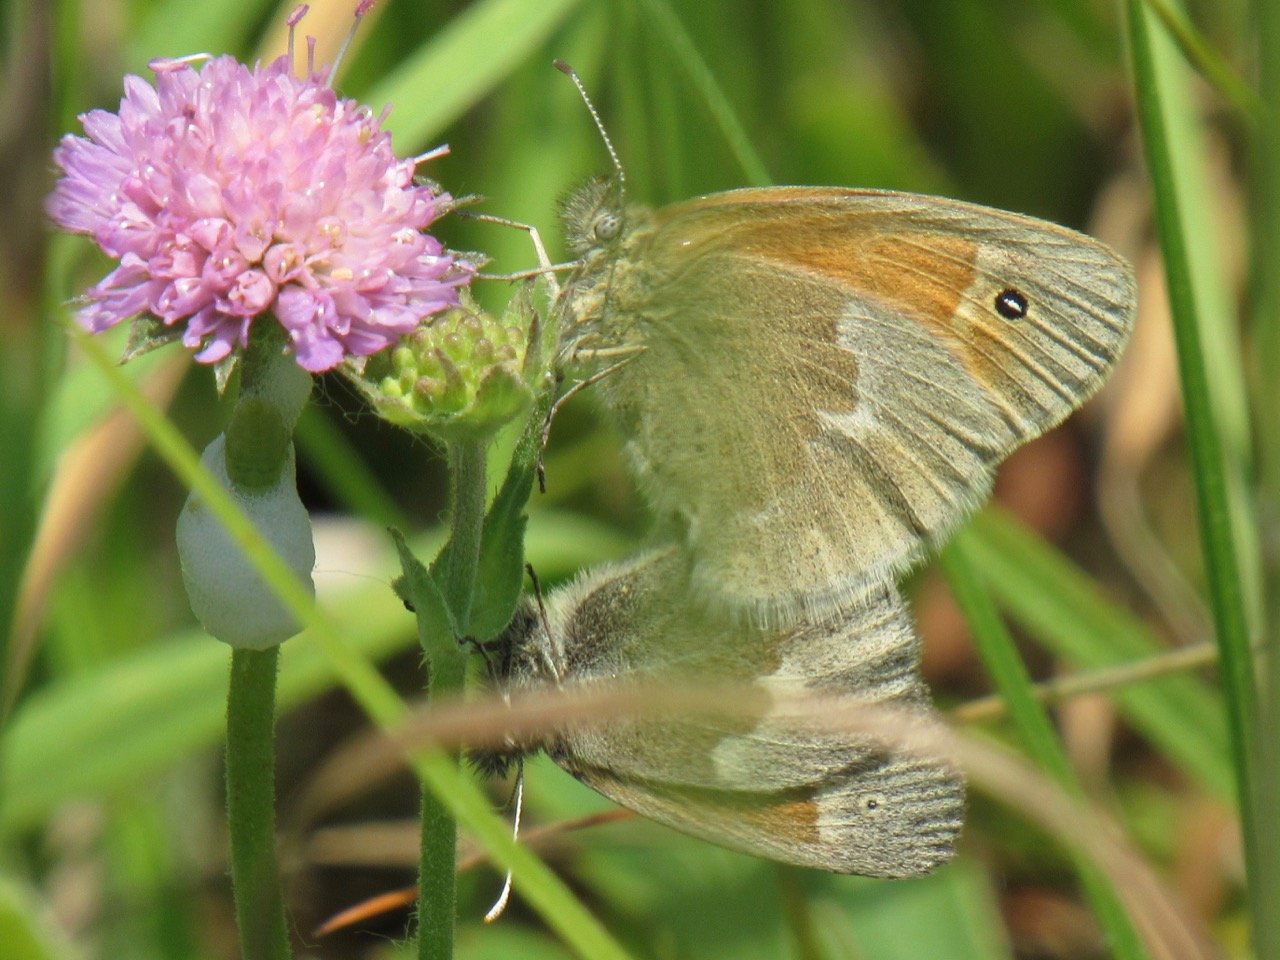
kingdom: Animalia
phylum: Arthropoda
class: Insecta
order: Lepidoptera
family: Nymphalidae
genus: Coenonympha
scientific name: Coenonympha tullia
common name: Large Heath
